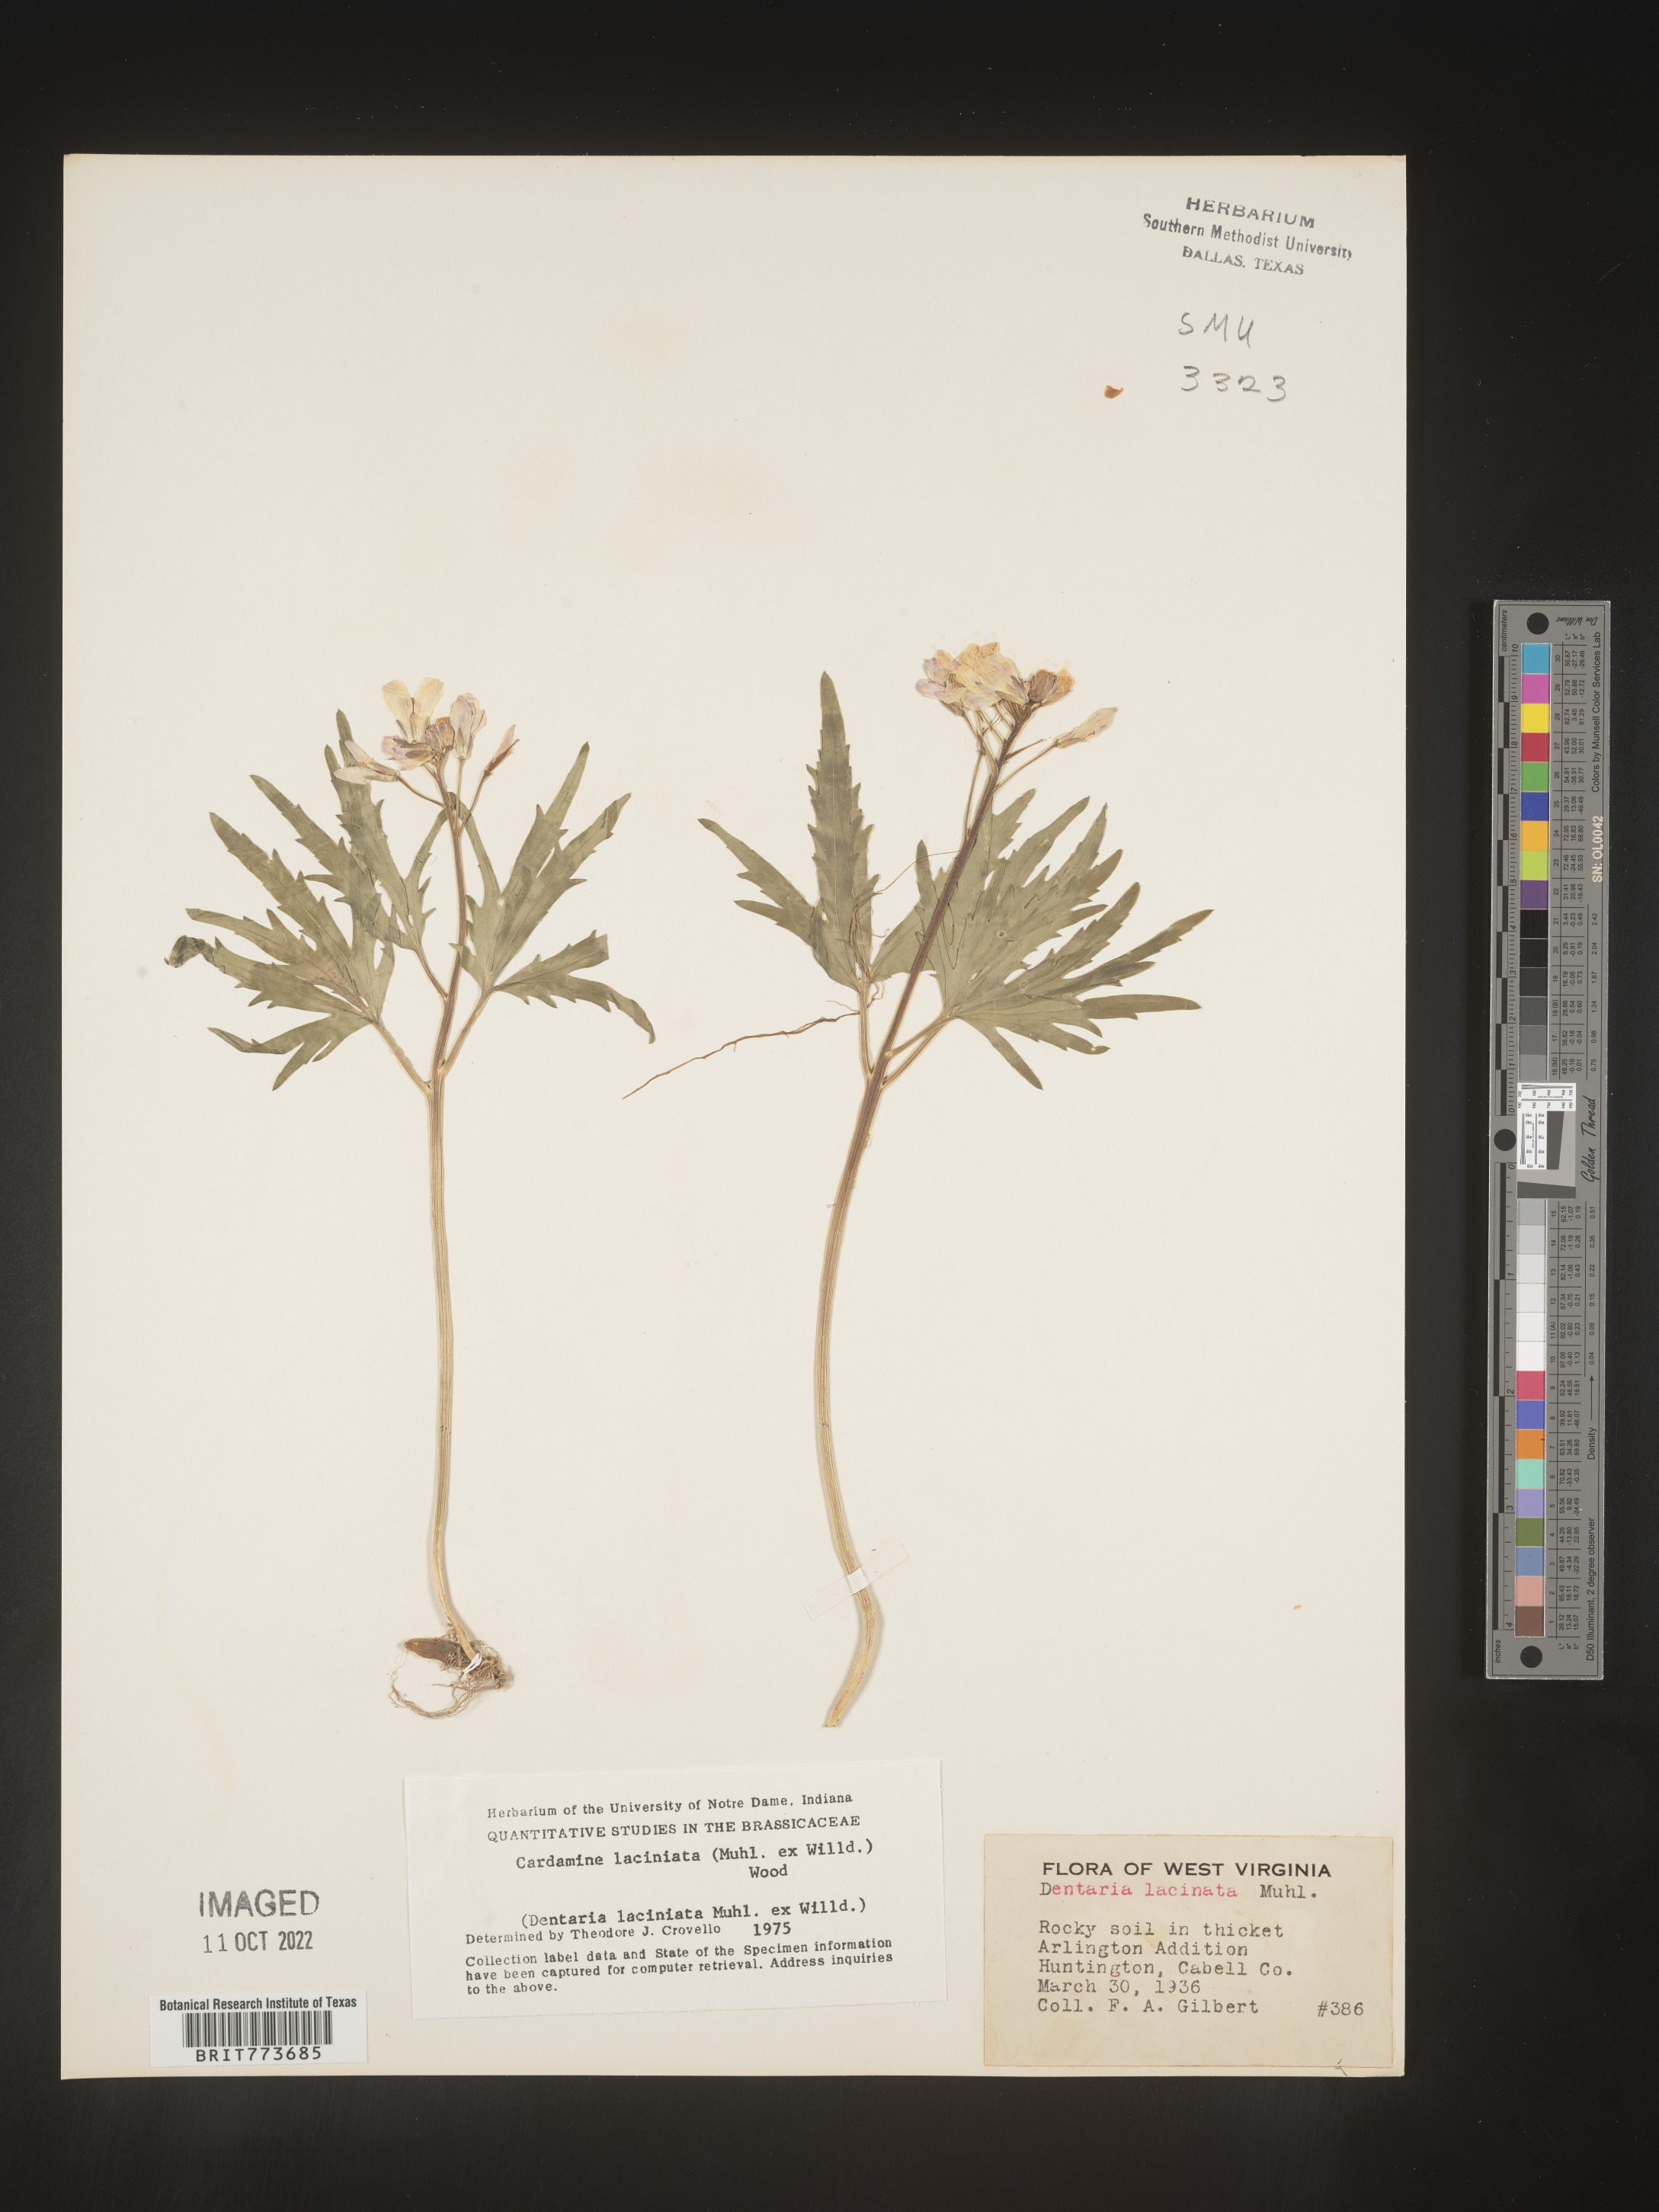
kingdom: Plantae
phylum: Tracheophyta
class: Magnoliopsida
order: Brassicales
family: Brassicaceae
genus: Rorippa
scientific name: Rorippa laciniata
